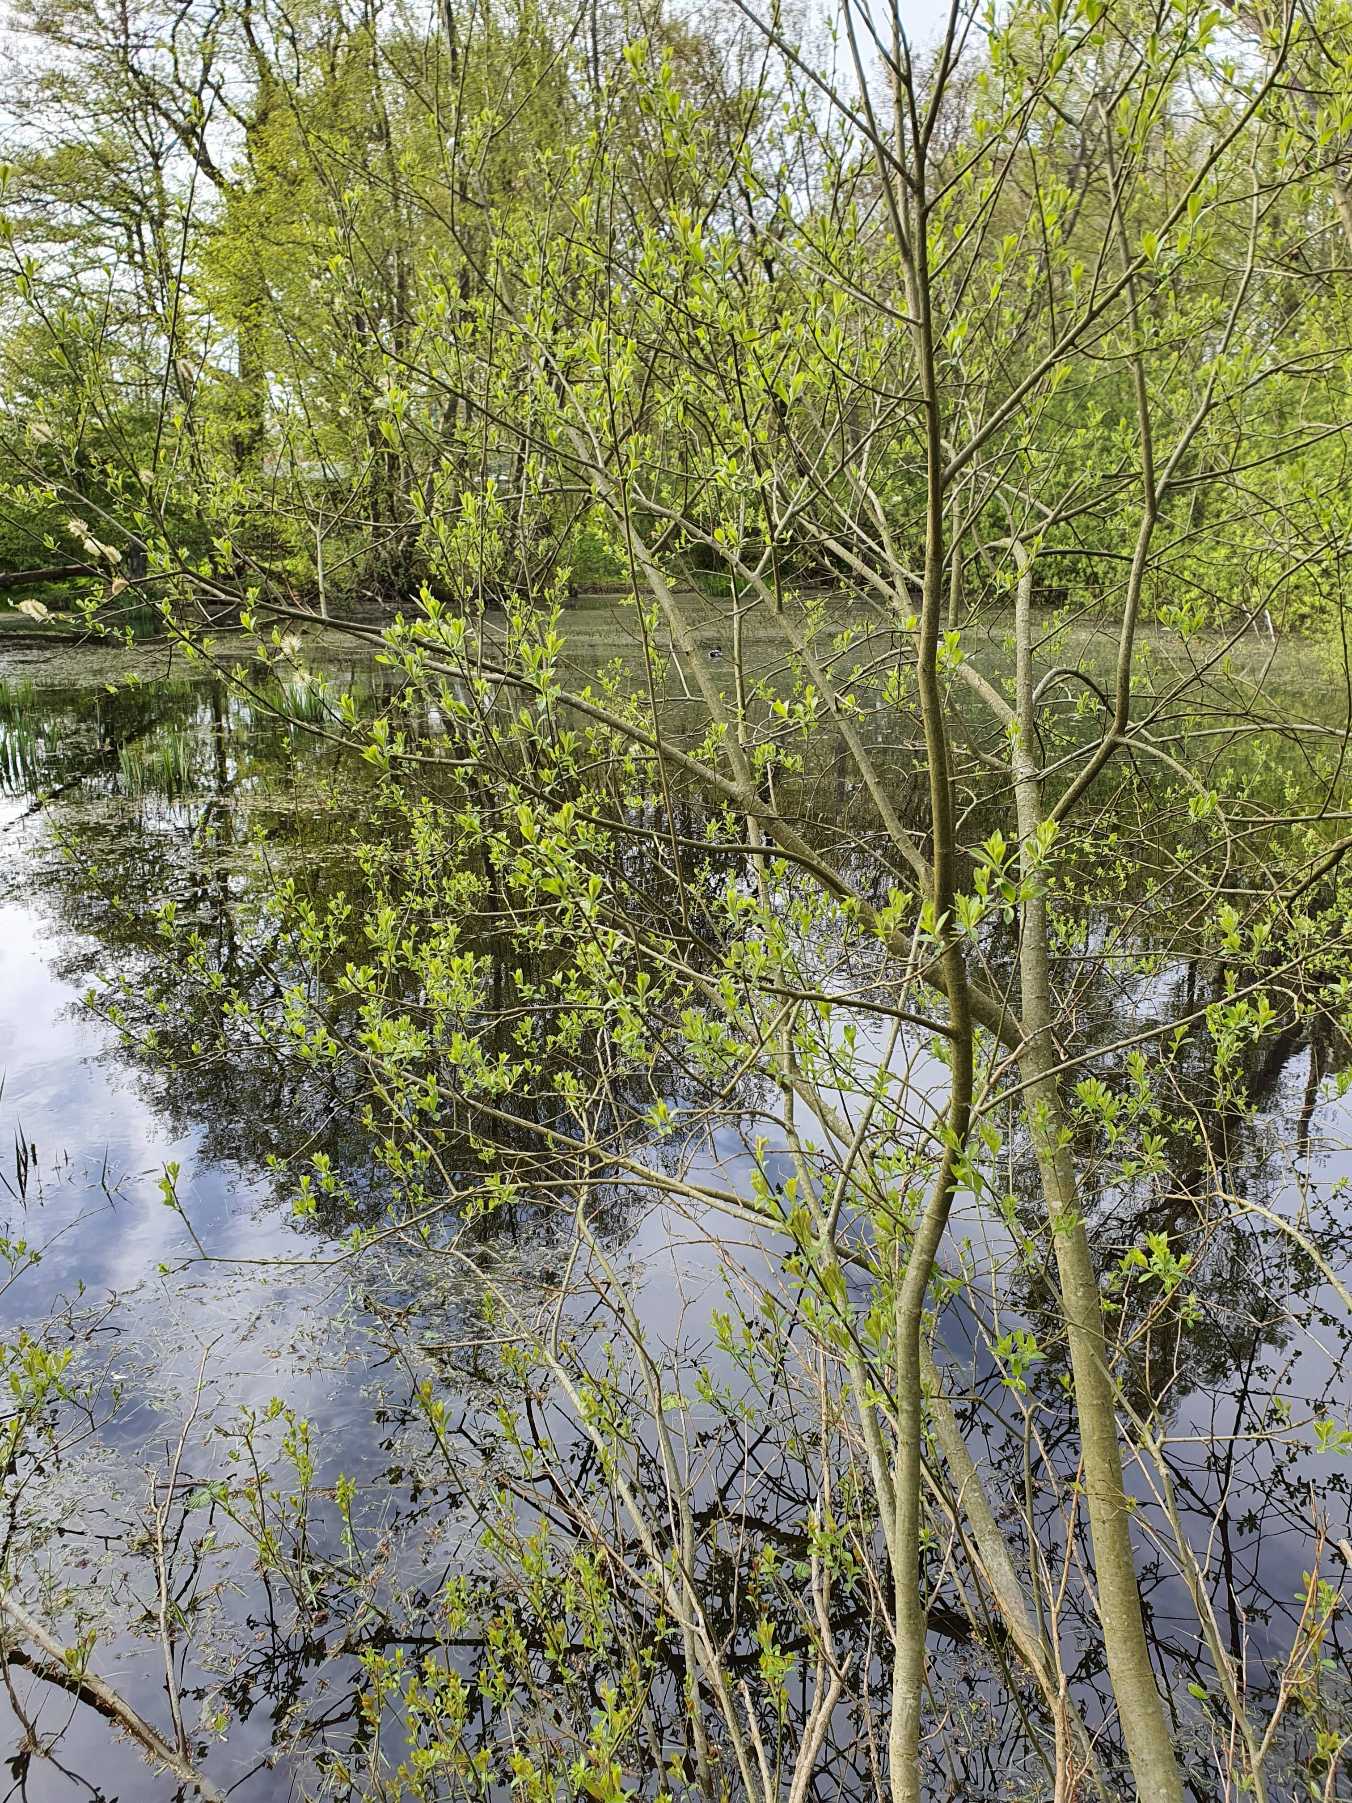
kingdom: Plantae
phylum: Tracheophyta
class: Magnoliopsida
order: Malpighiales
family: Salicaceae
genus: Salix
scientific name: Salix cinerea
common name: Grå-pil
